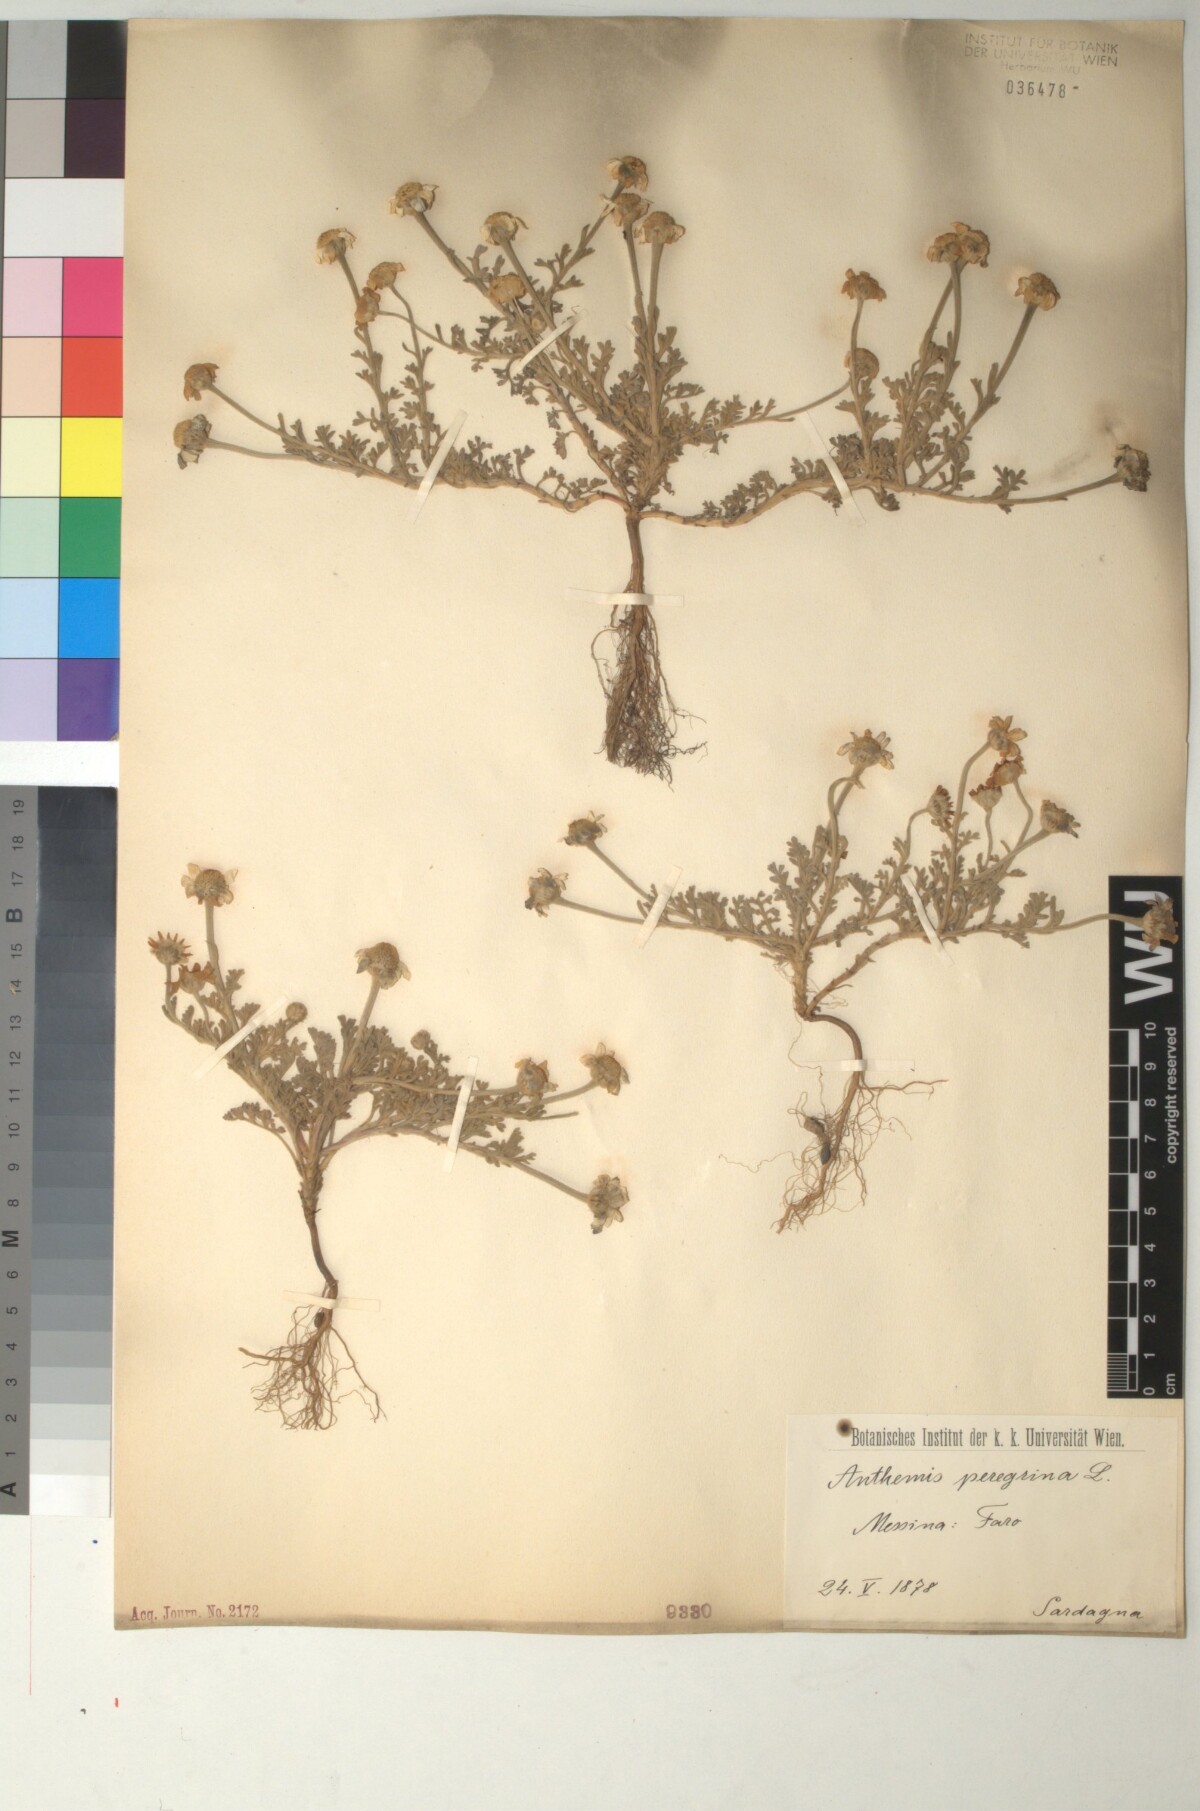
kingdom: Plantae
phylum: Tracheophyta
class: Magnoliopsida
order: Asterales
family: Asteraceae
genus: Anthemis
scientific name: Anthemis tomentosa
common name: Woolly chamomile
